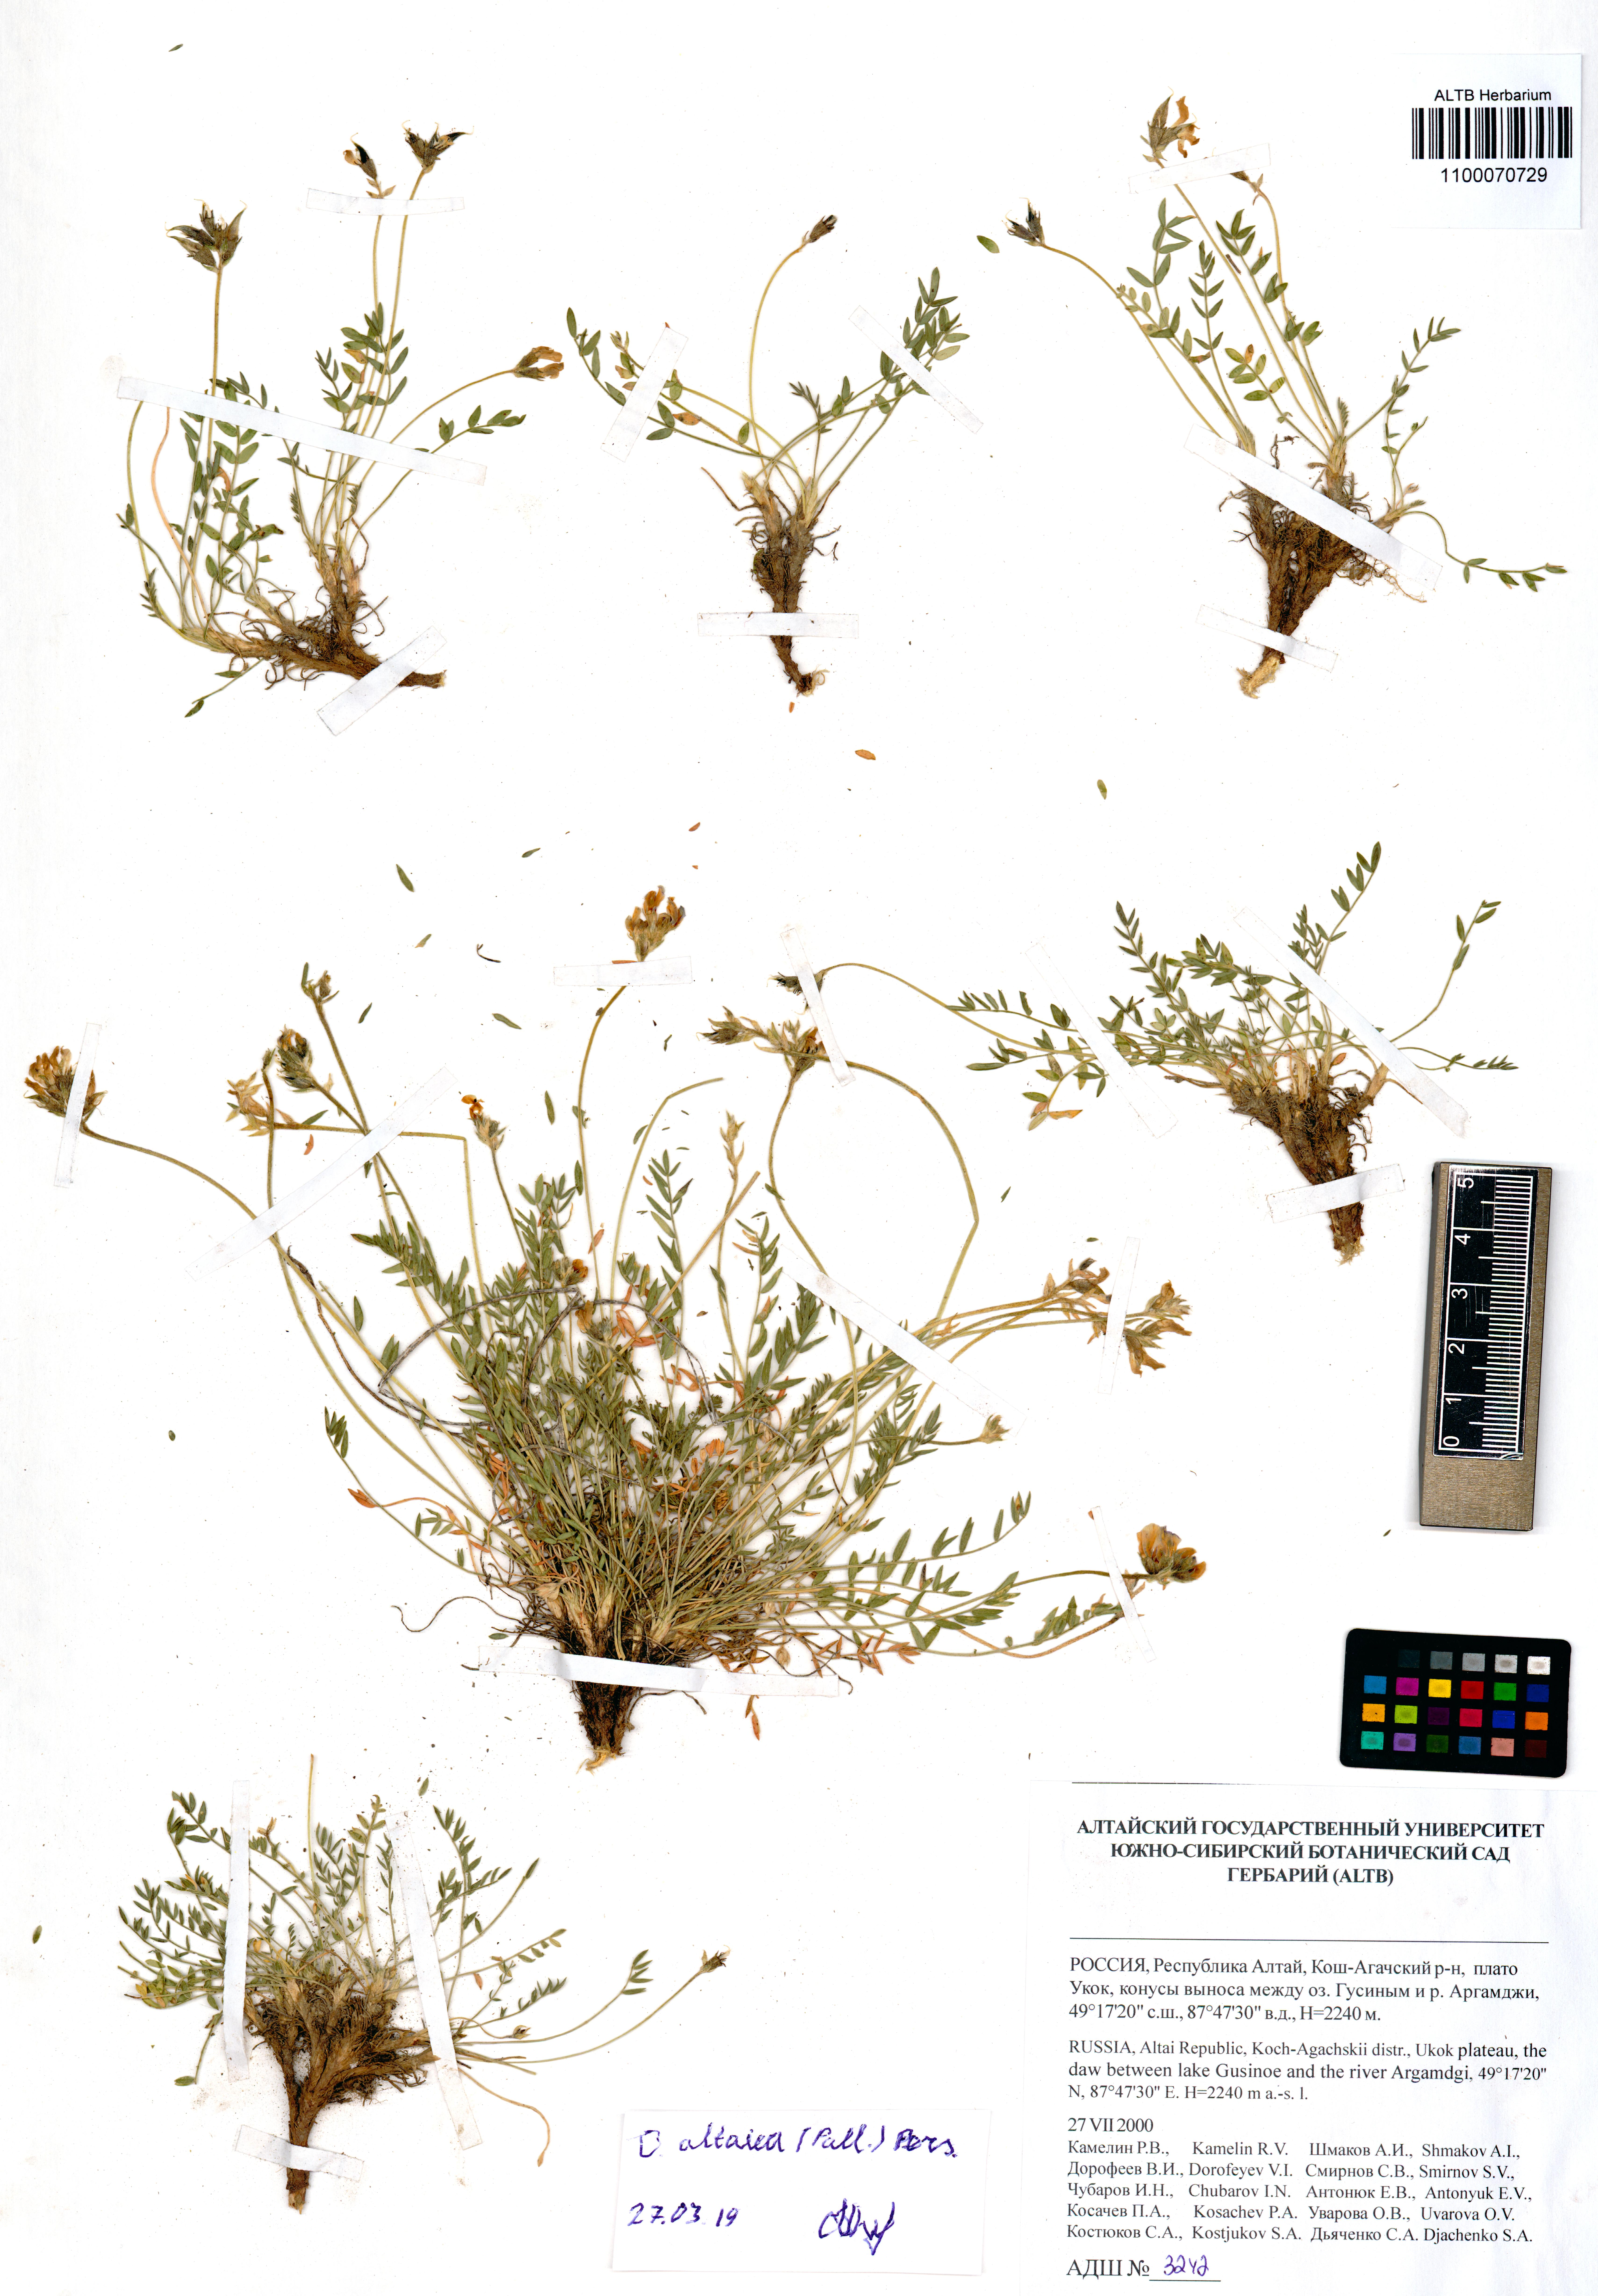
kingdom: Plantae
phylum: Tracheophyta
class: Magnoliopsida
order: Fabales
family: Fabaceae
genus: Oxytropis
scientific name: Oxytropis altaica
